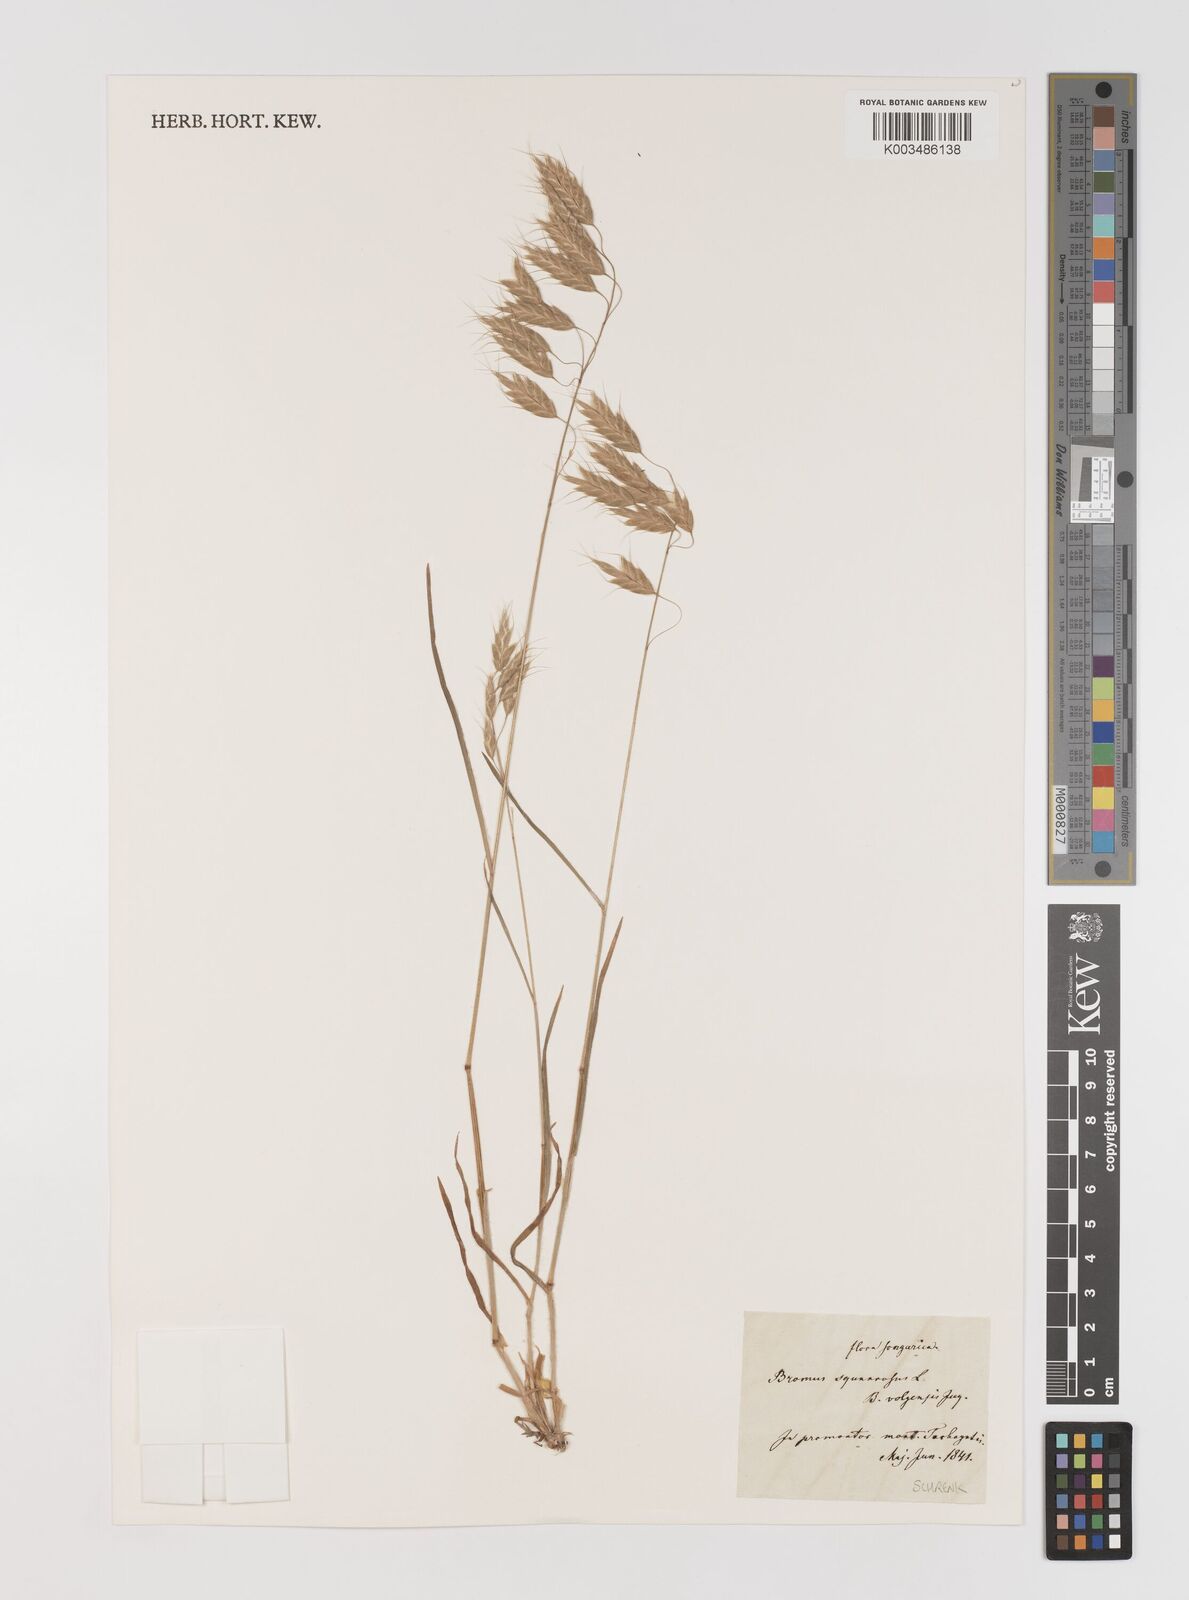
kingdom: Plantae
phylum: Tracheophyta
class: Liliopsida
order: Poales
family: Poaceae
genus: Bromus
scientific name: Bromus squarrosus
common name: Corn brome
